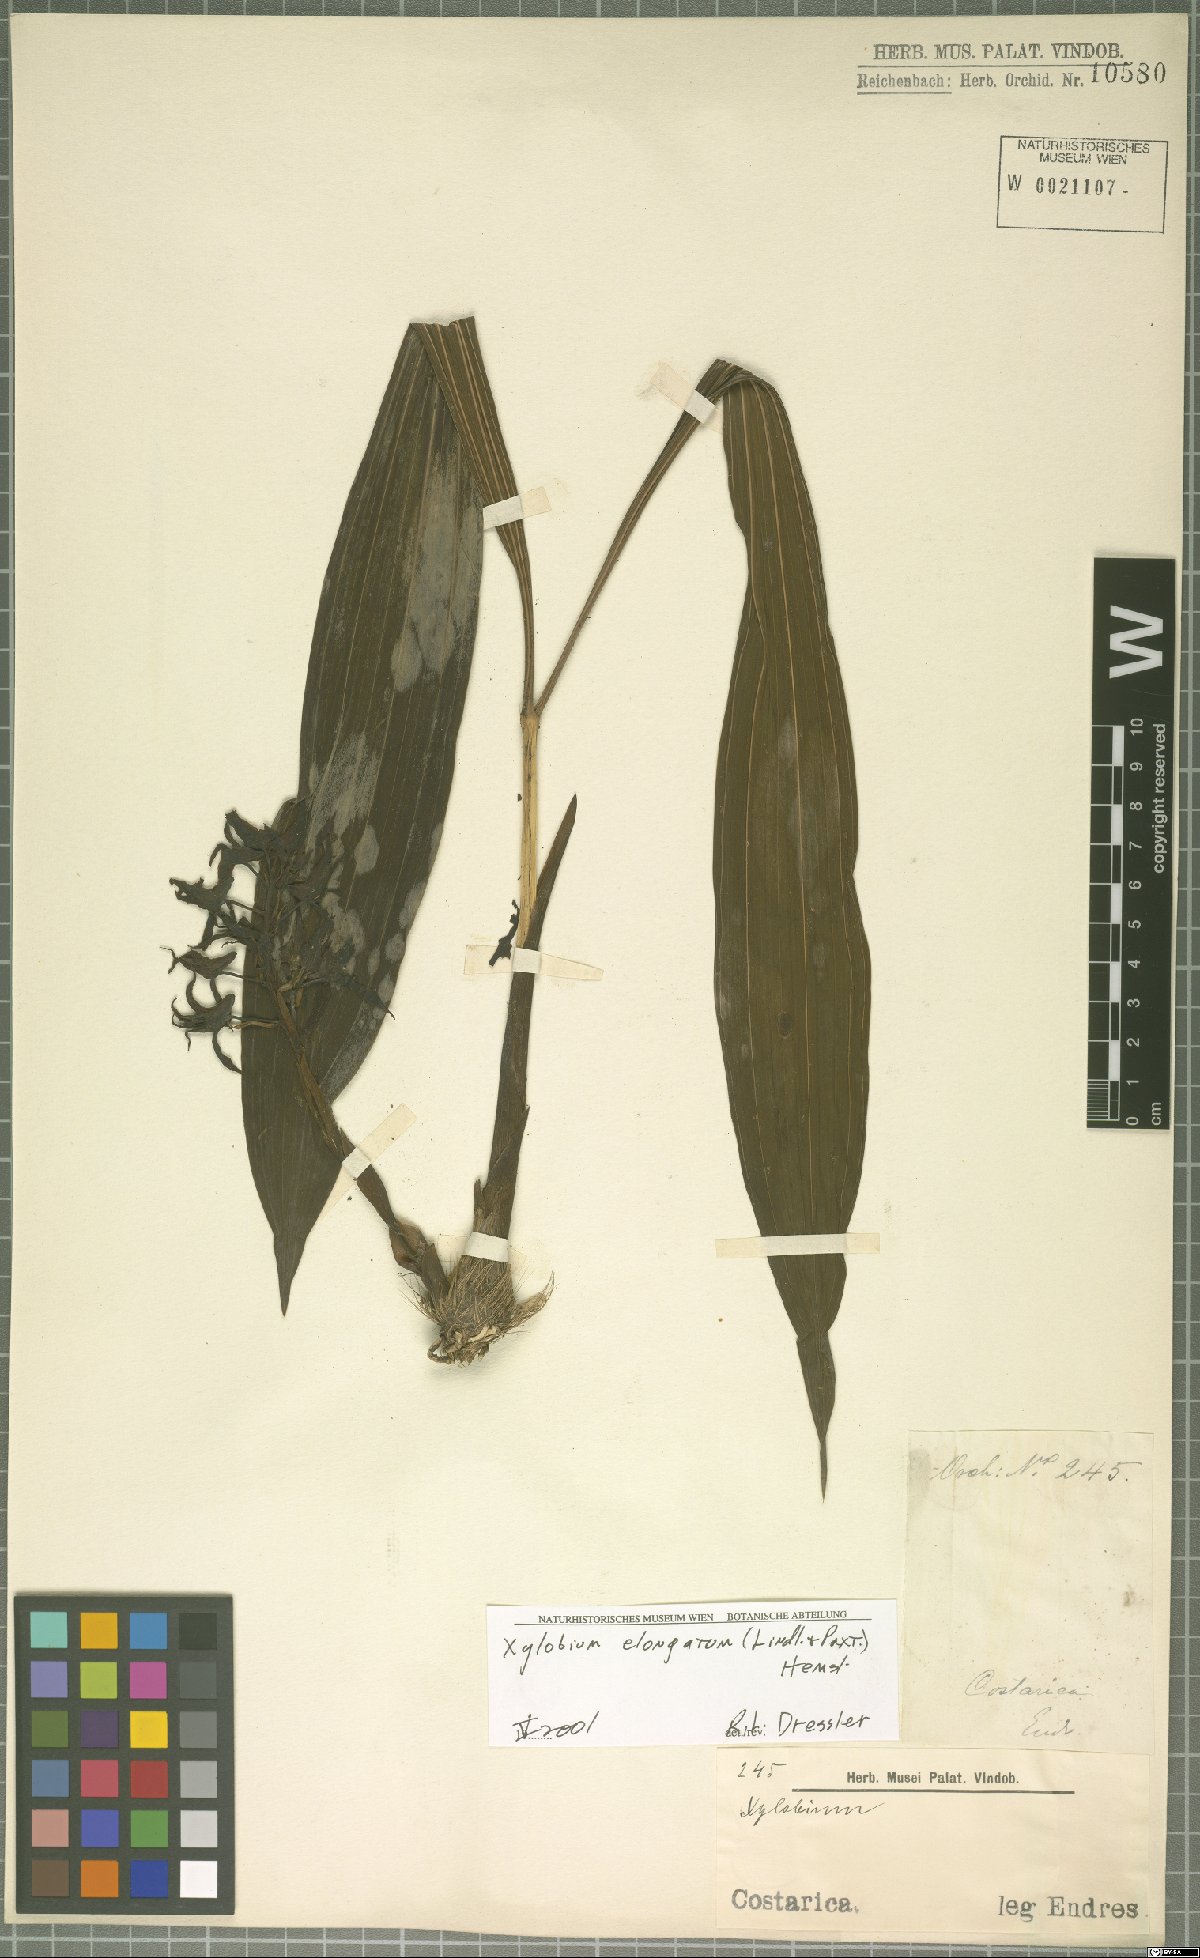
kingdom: Plantae
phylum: Tracheophyta
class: Liliopsida
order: Asparagales
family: Orchidaceae
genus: Xylobium
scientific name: Xylobium elongatum
